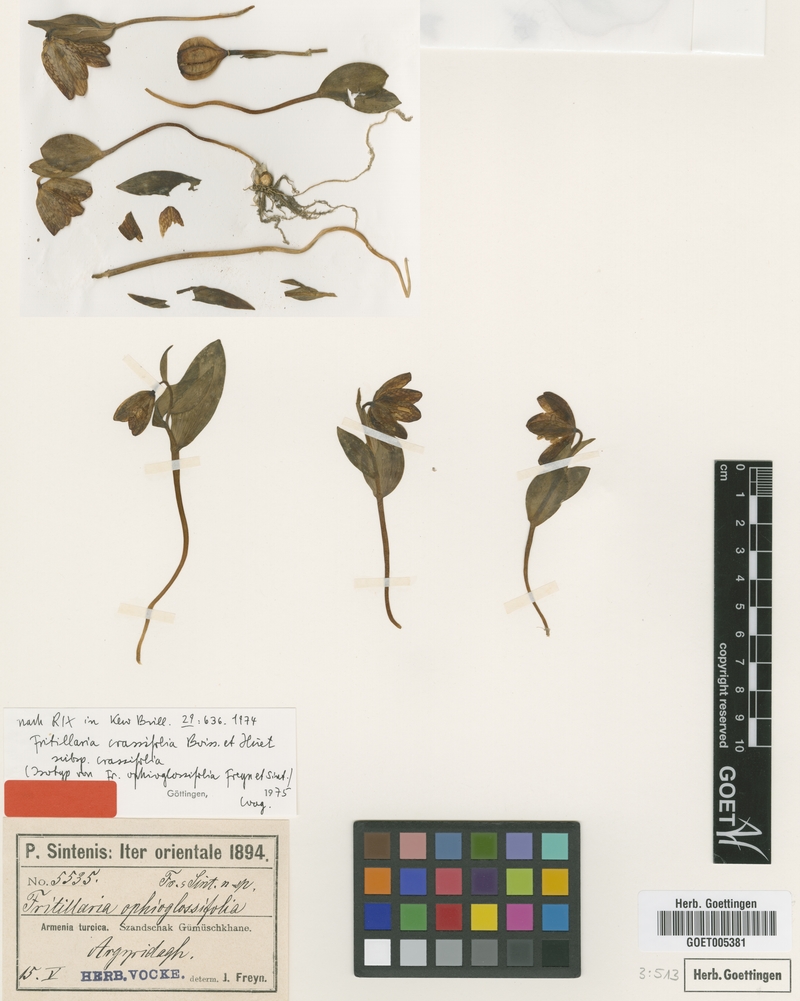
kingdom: Plantae
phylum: Tracheophyta
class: Liliopsida
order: Liliales
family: Liliaceae
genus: Fritillaria
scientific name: Fritillaria crassifolia
